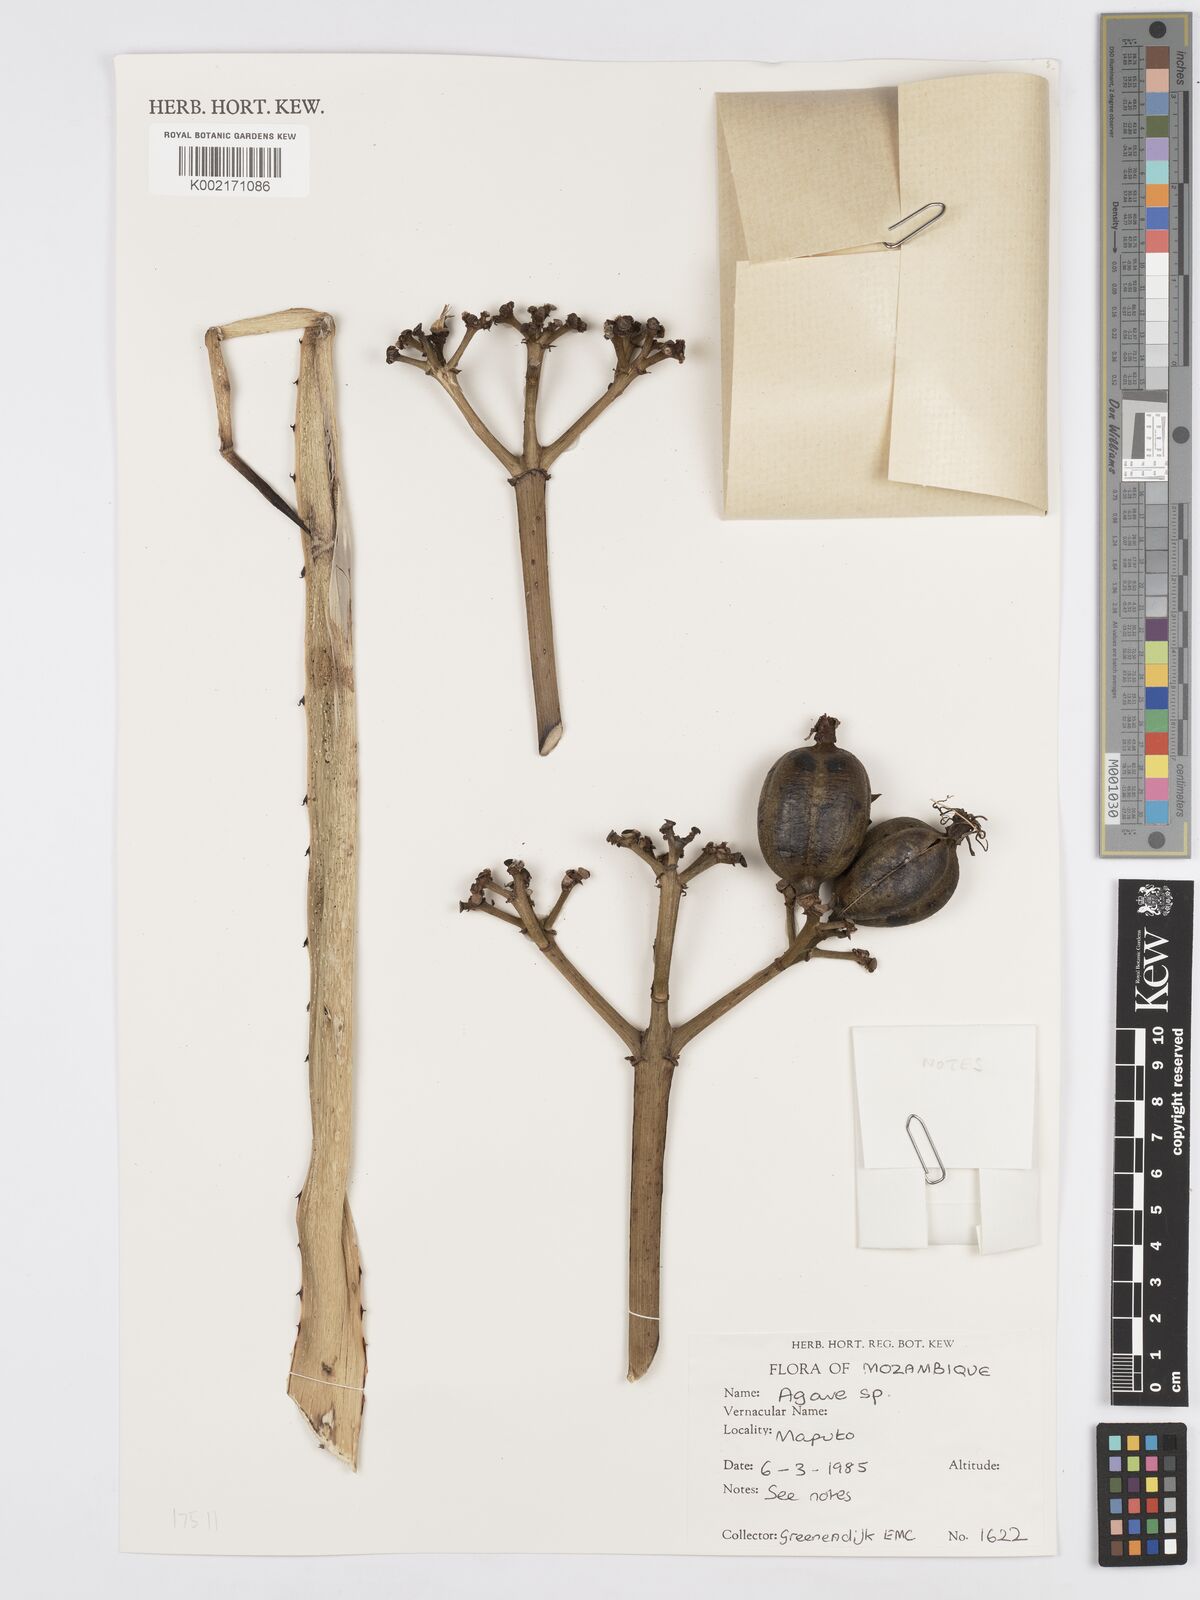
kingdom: Plantae
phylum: Tracheophyta
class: Liliopsida
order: Asparagales
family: Asparagaceae
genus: Agave
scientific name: Agave
